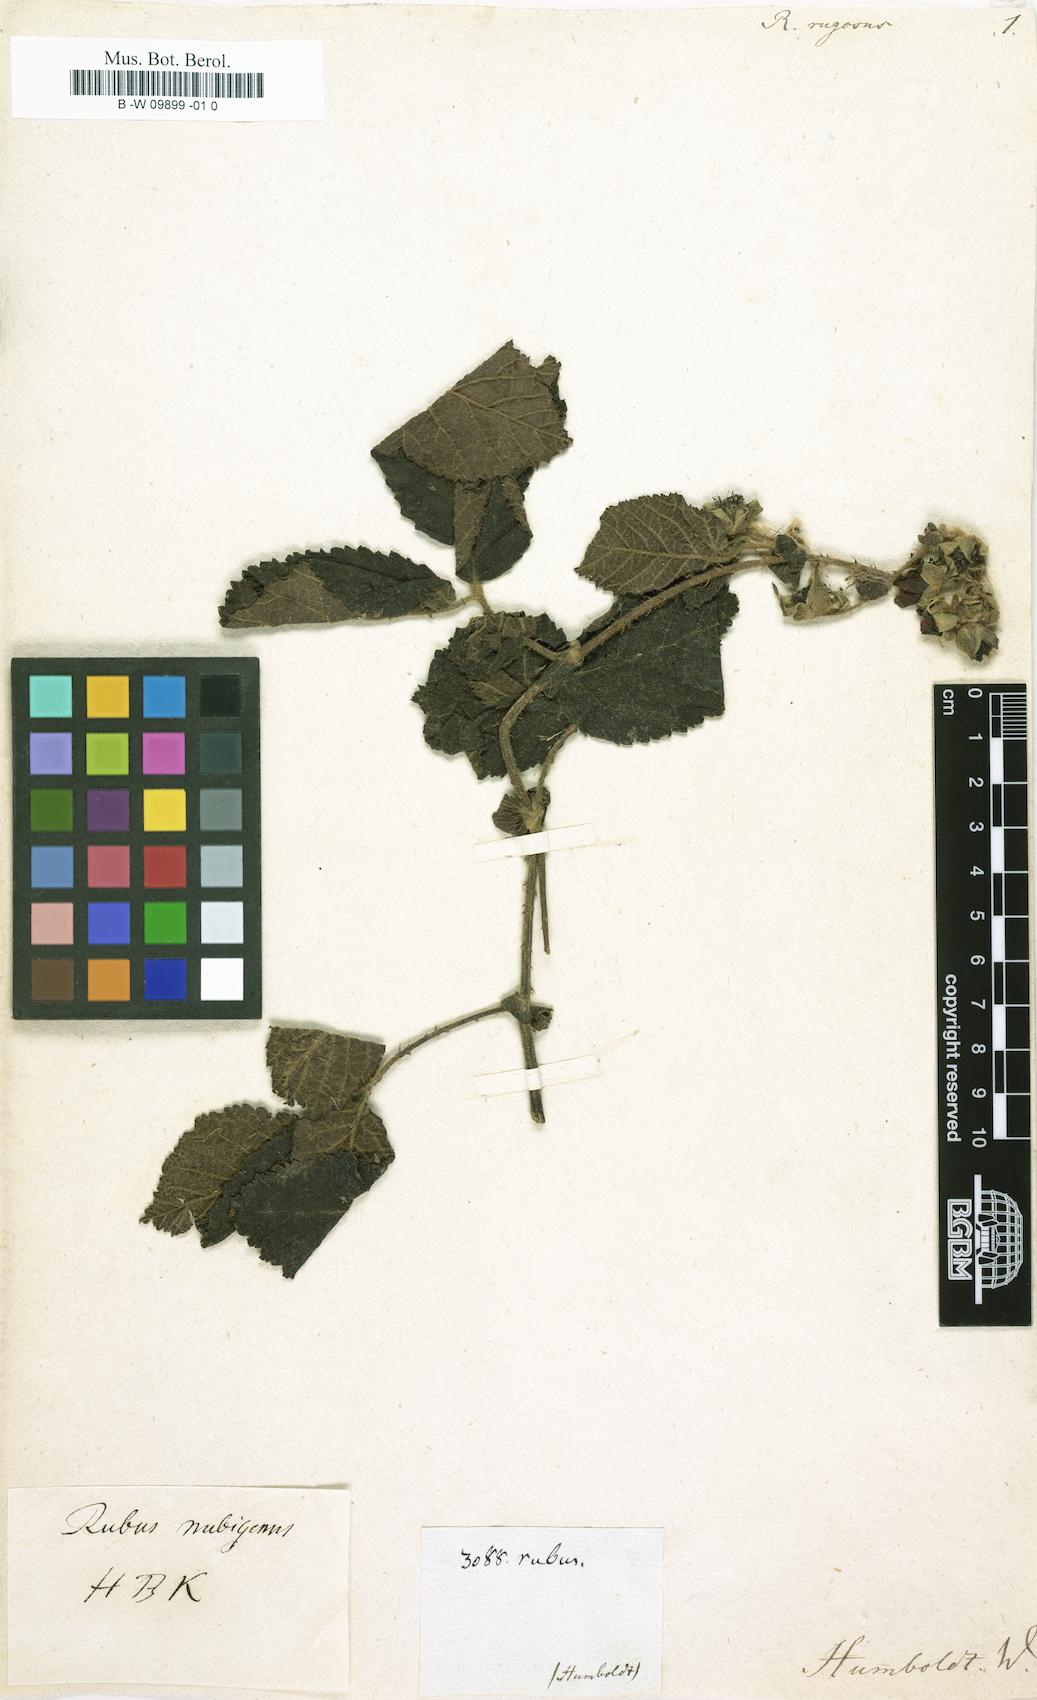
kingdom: Plantae
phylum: Tracheophyta
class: Magnoliopsida
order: Rosales
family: Rosaceae
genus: Rubus
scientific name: Rubus rugosus
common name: Himalayan blackberry
